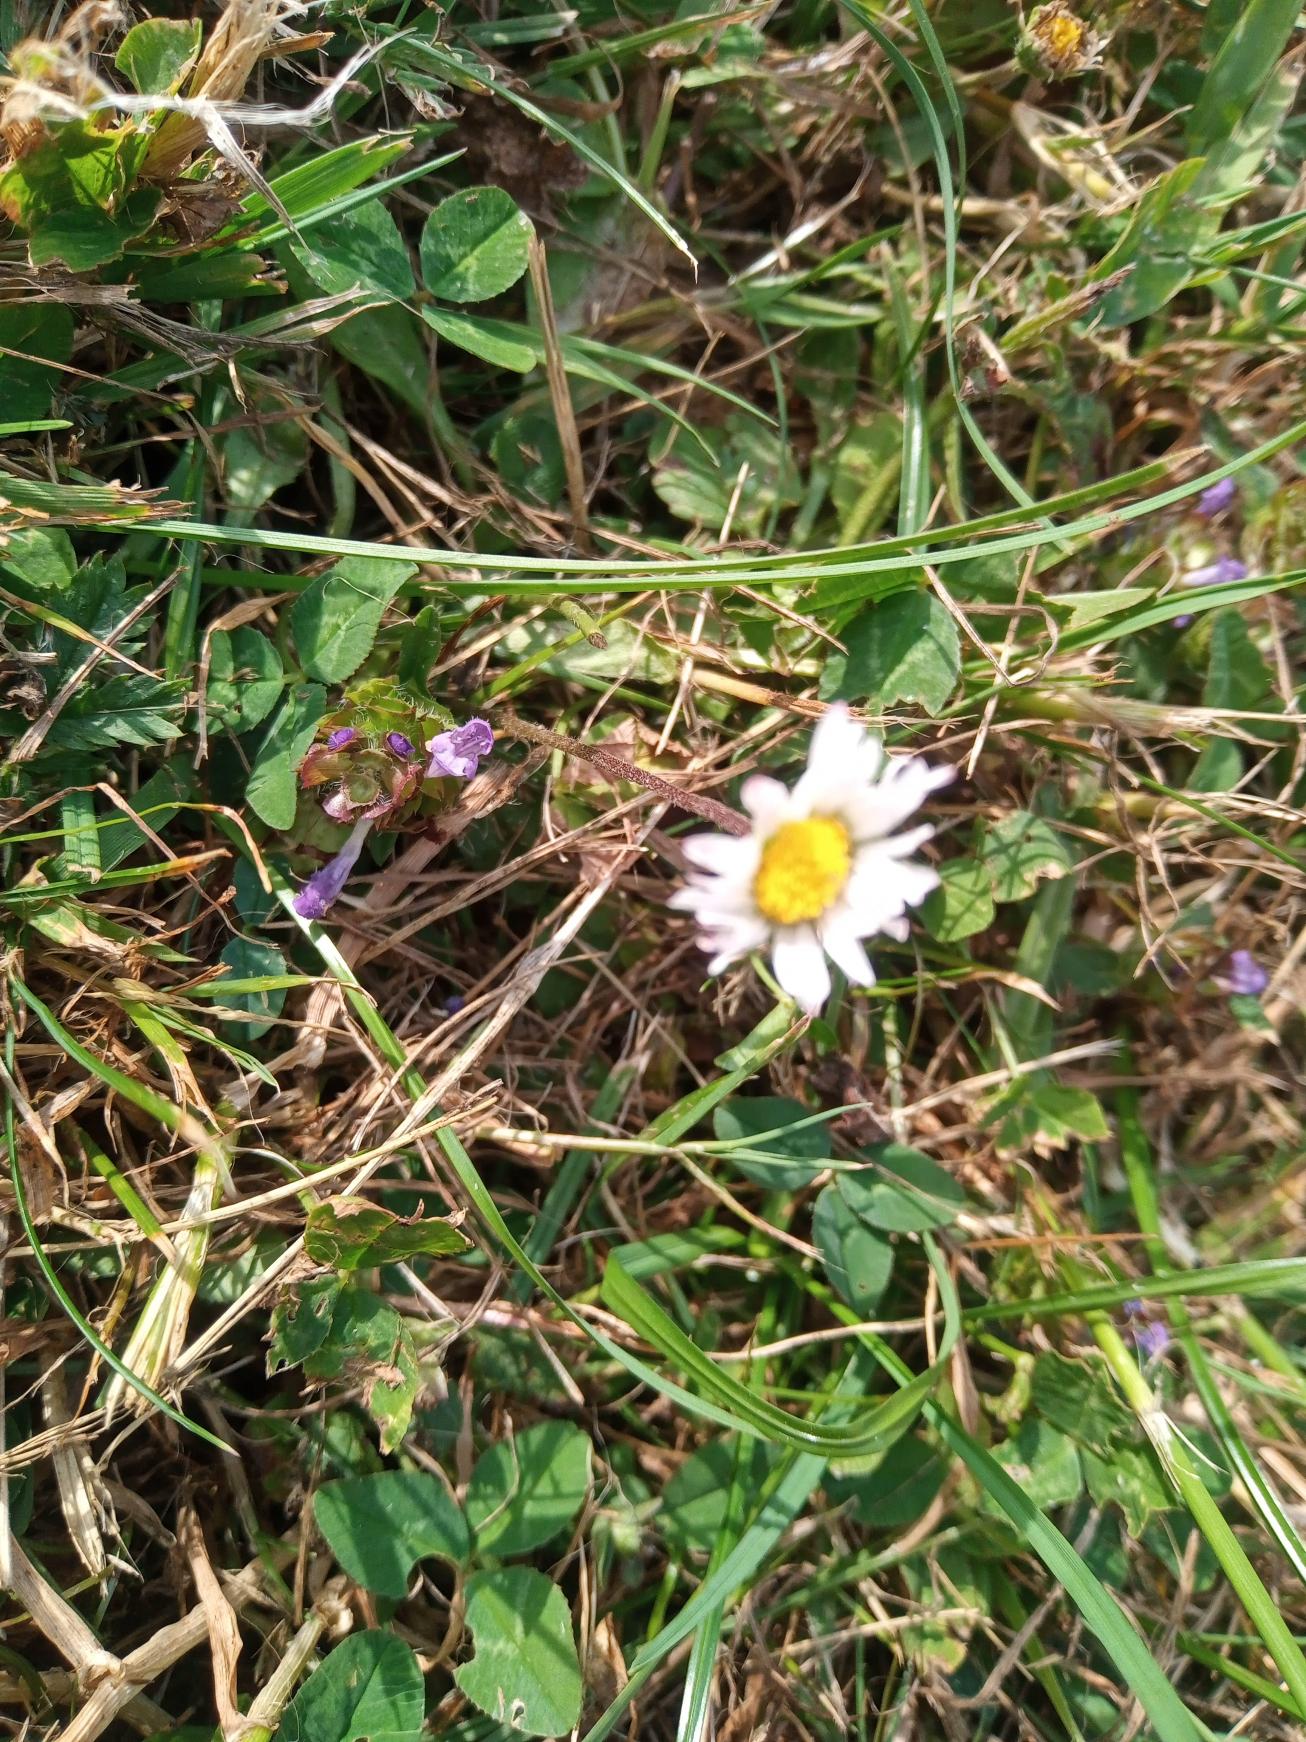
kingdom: Plantae
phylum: Tracheophyta
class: Magnoliopsida
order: Asterales
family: Asteraceae
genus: Bellis
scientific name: Bellis perennis
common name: Tusindfryd
